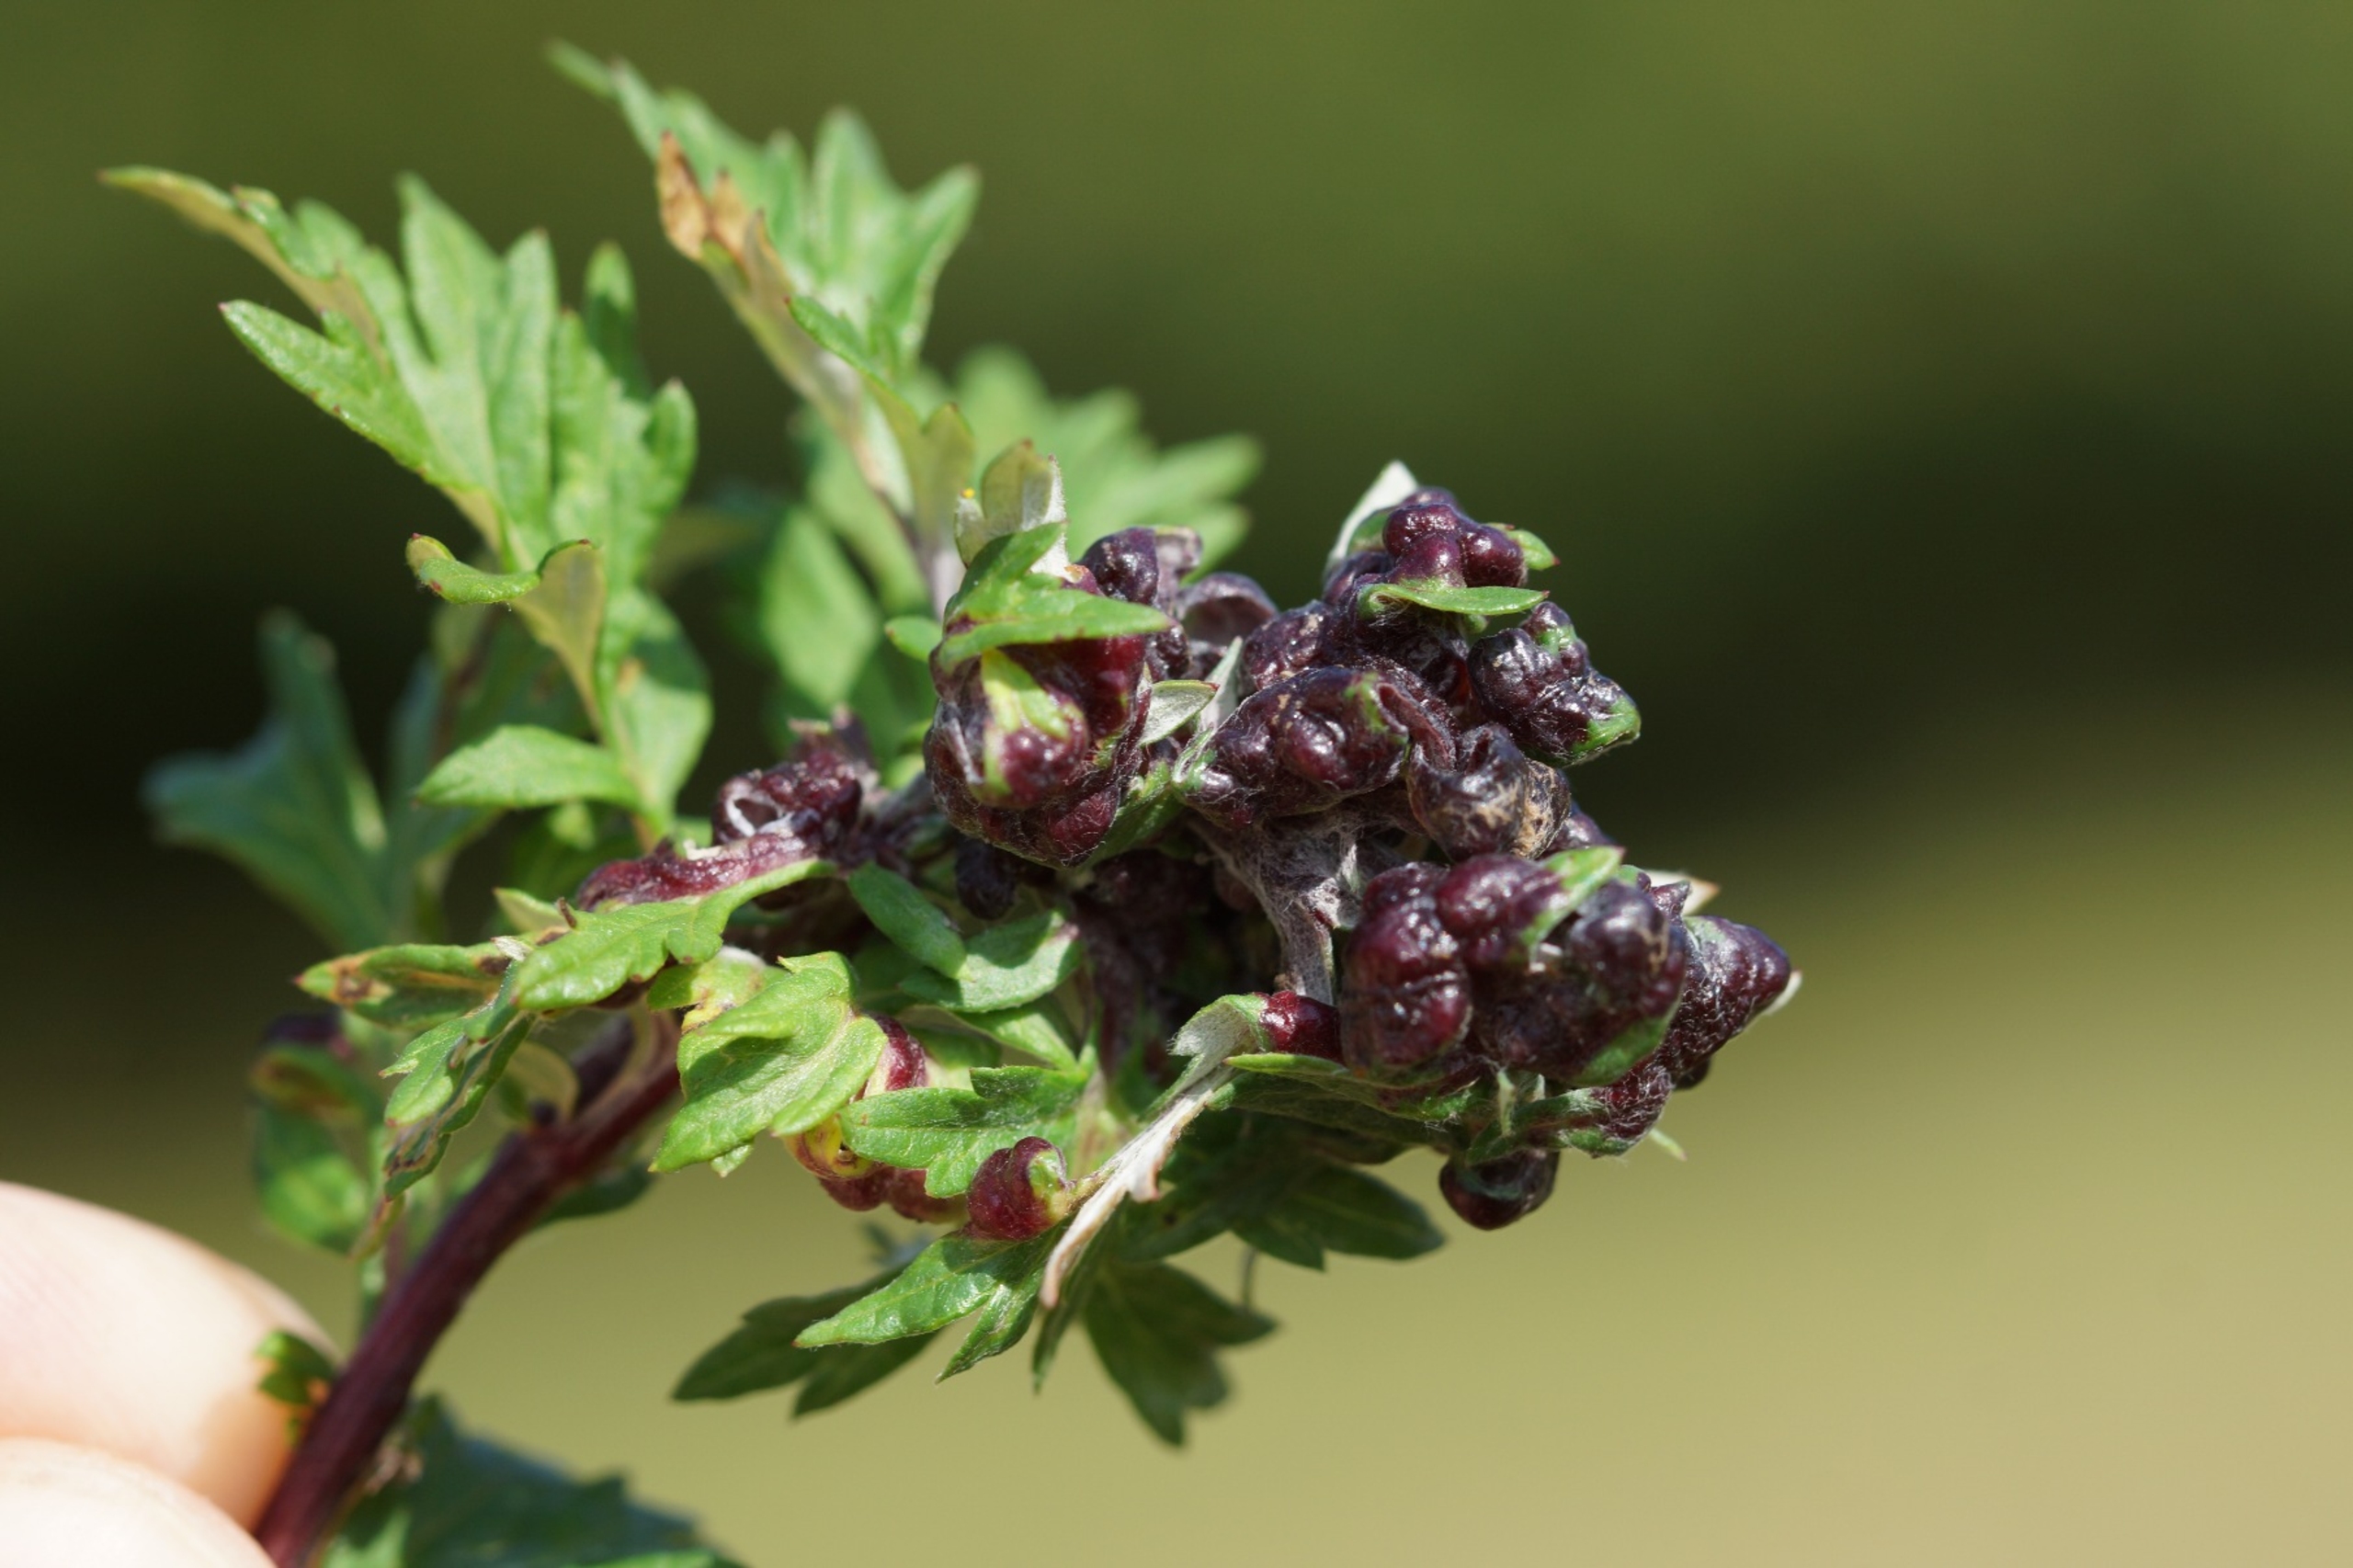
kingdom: Animalia
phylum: Arthropoda
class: Insecta
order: Hemiptera
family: Aphididae
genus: Cryptosiphum
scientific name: Cryptosiphum artemisiae
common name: Bynkegallelus
